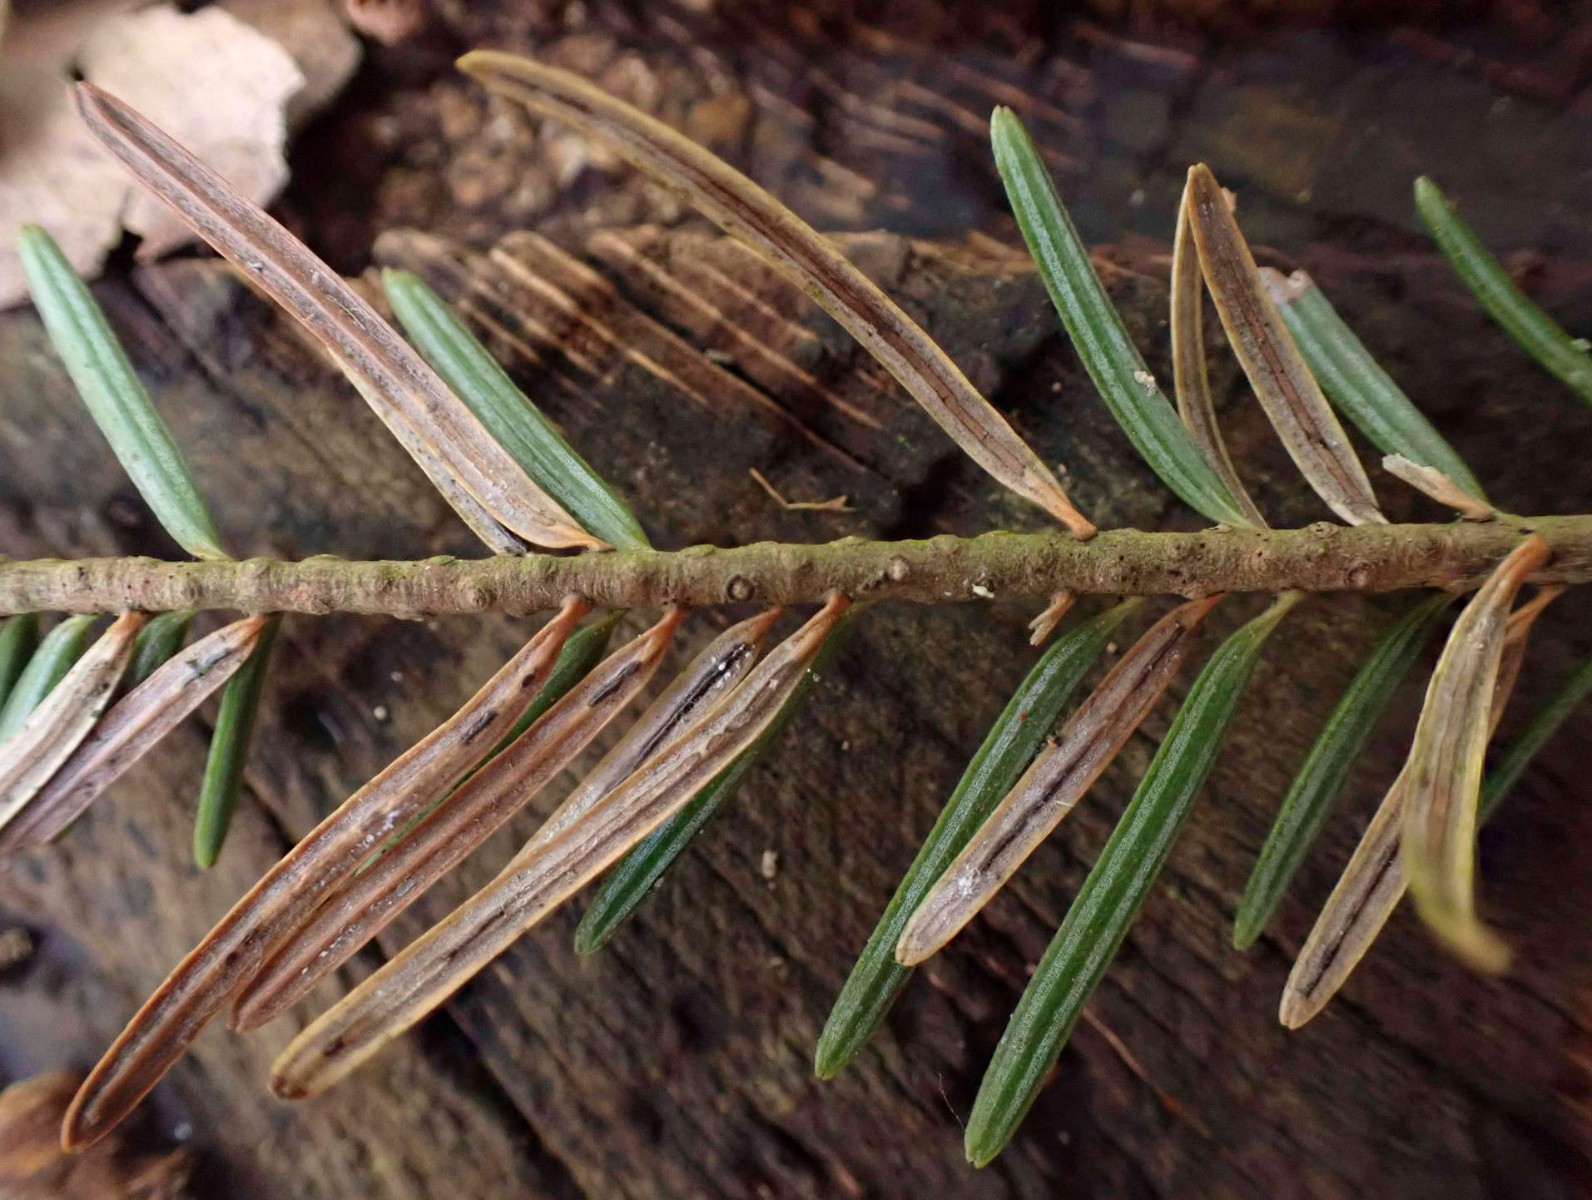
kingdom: Fungi
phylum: Ascomycota
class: Leotiomycetes
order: Rhytismatales
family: Rhytismataceae
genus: Lirula
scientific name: Lirula nervisequia
